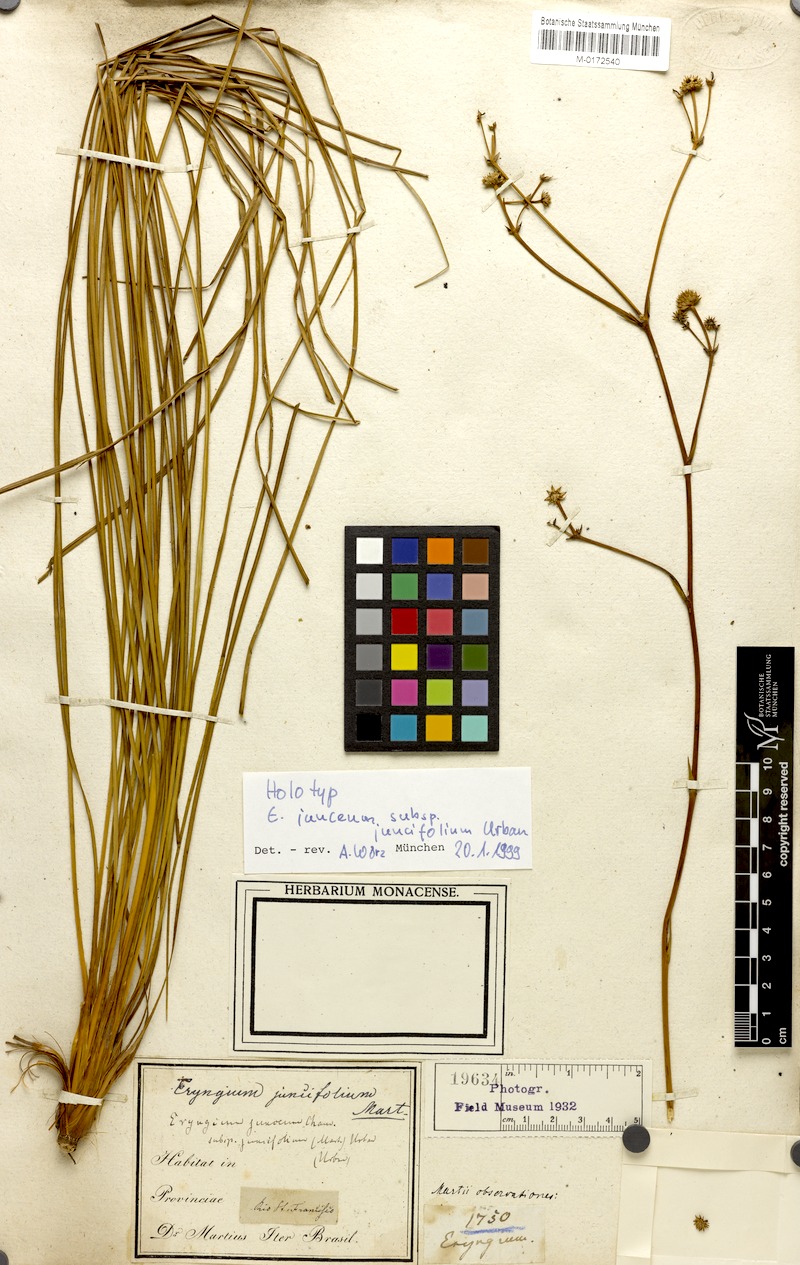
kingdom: Plantae
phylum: Tracheophyta
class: Magnoliopsida
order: Apiales
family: Apiaceae
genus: Eryngium
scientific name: Eryngium juncifolium
